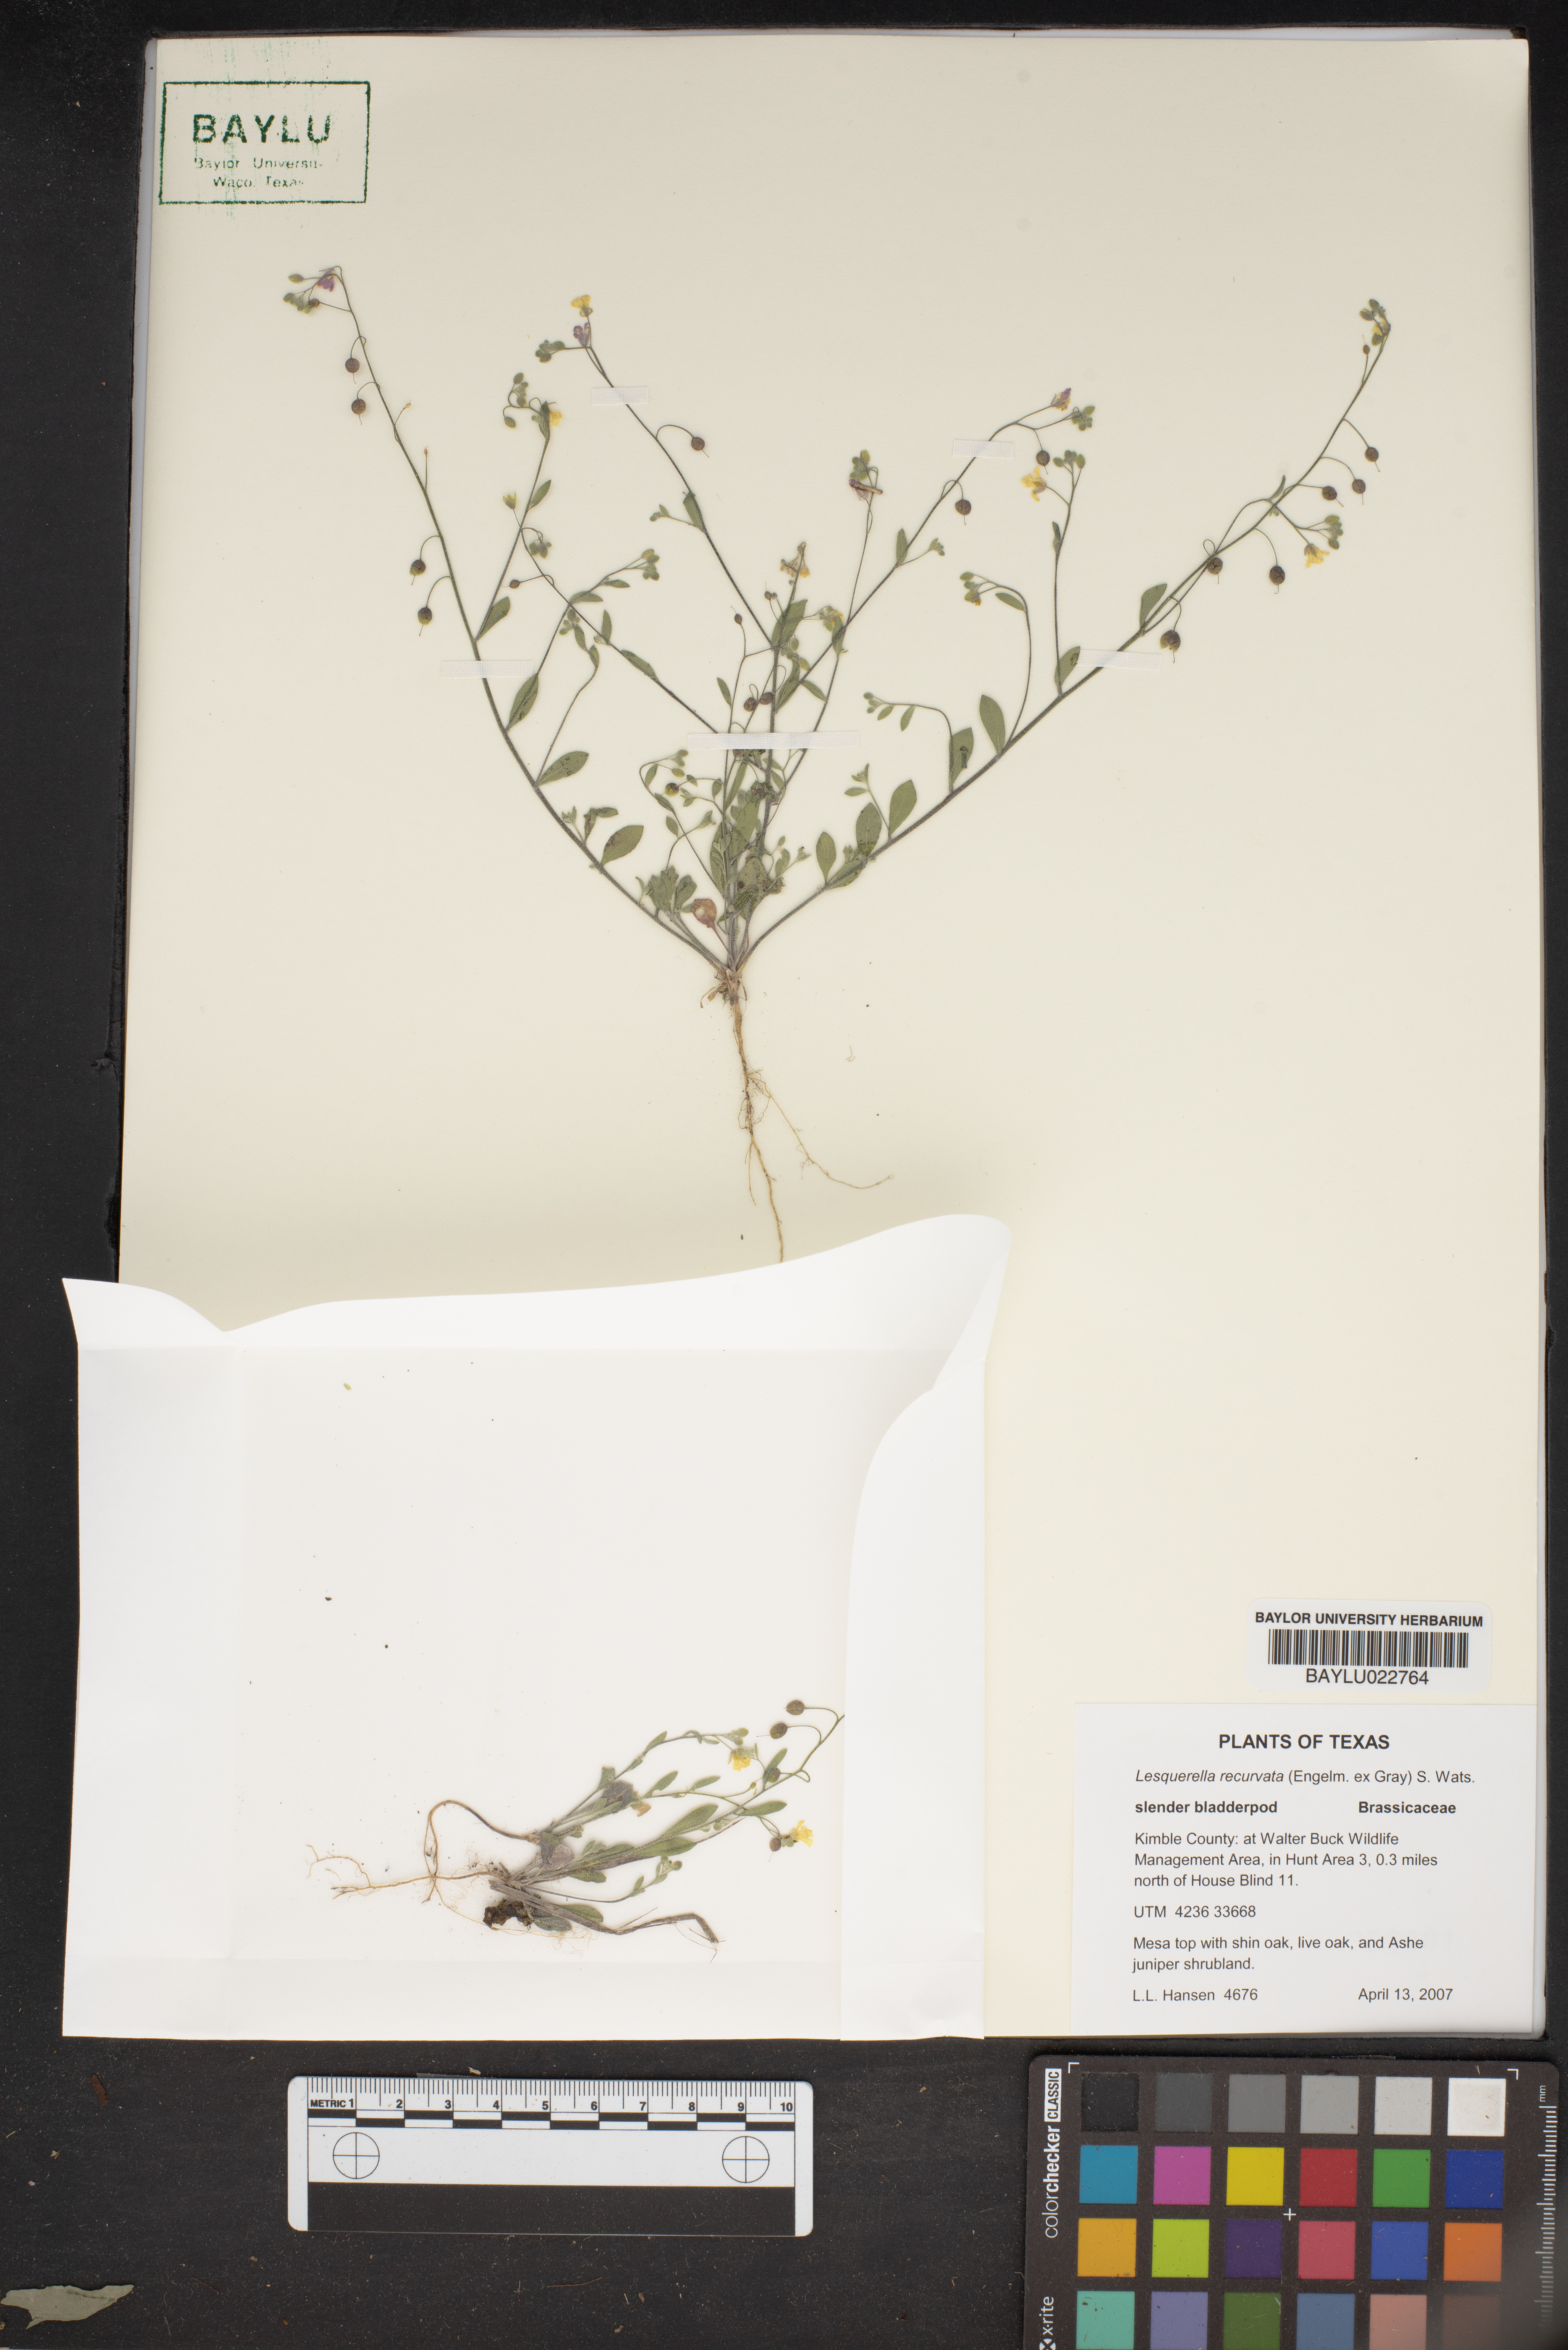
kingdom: Plantae
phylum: Tracheophyta
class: Magnoliopsida
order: Brassicales
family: Brassicaceae
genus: Physaria
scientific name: Physaria recurvata
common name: Gaslight bladderpod
